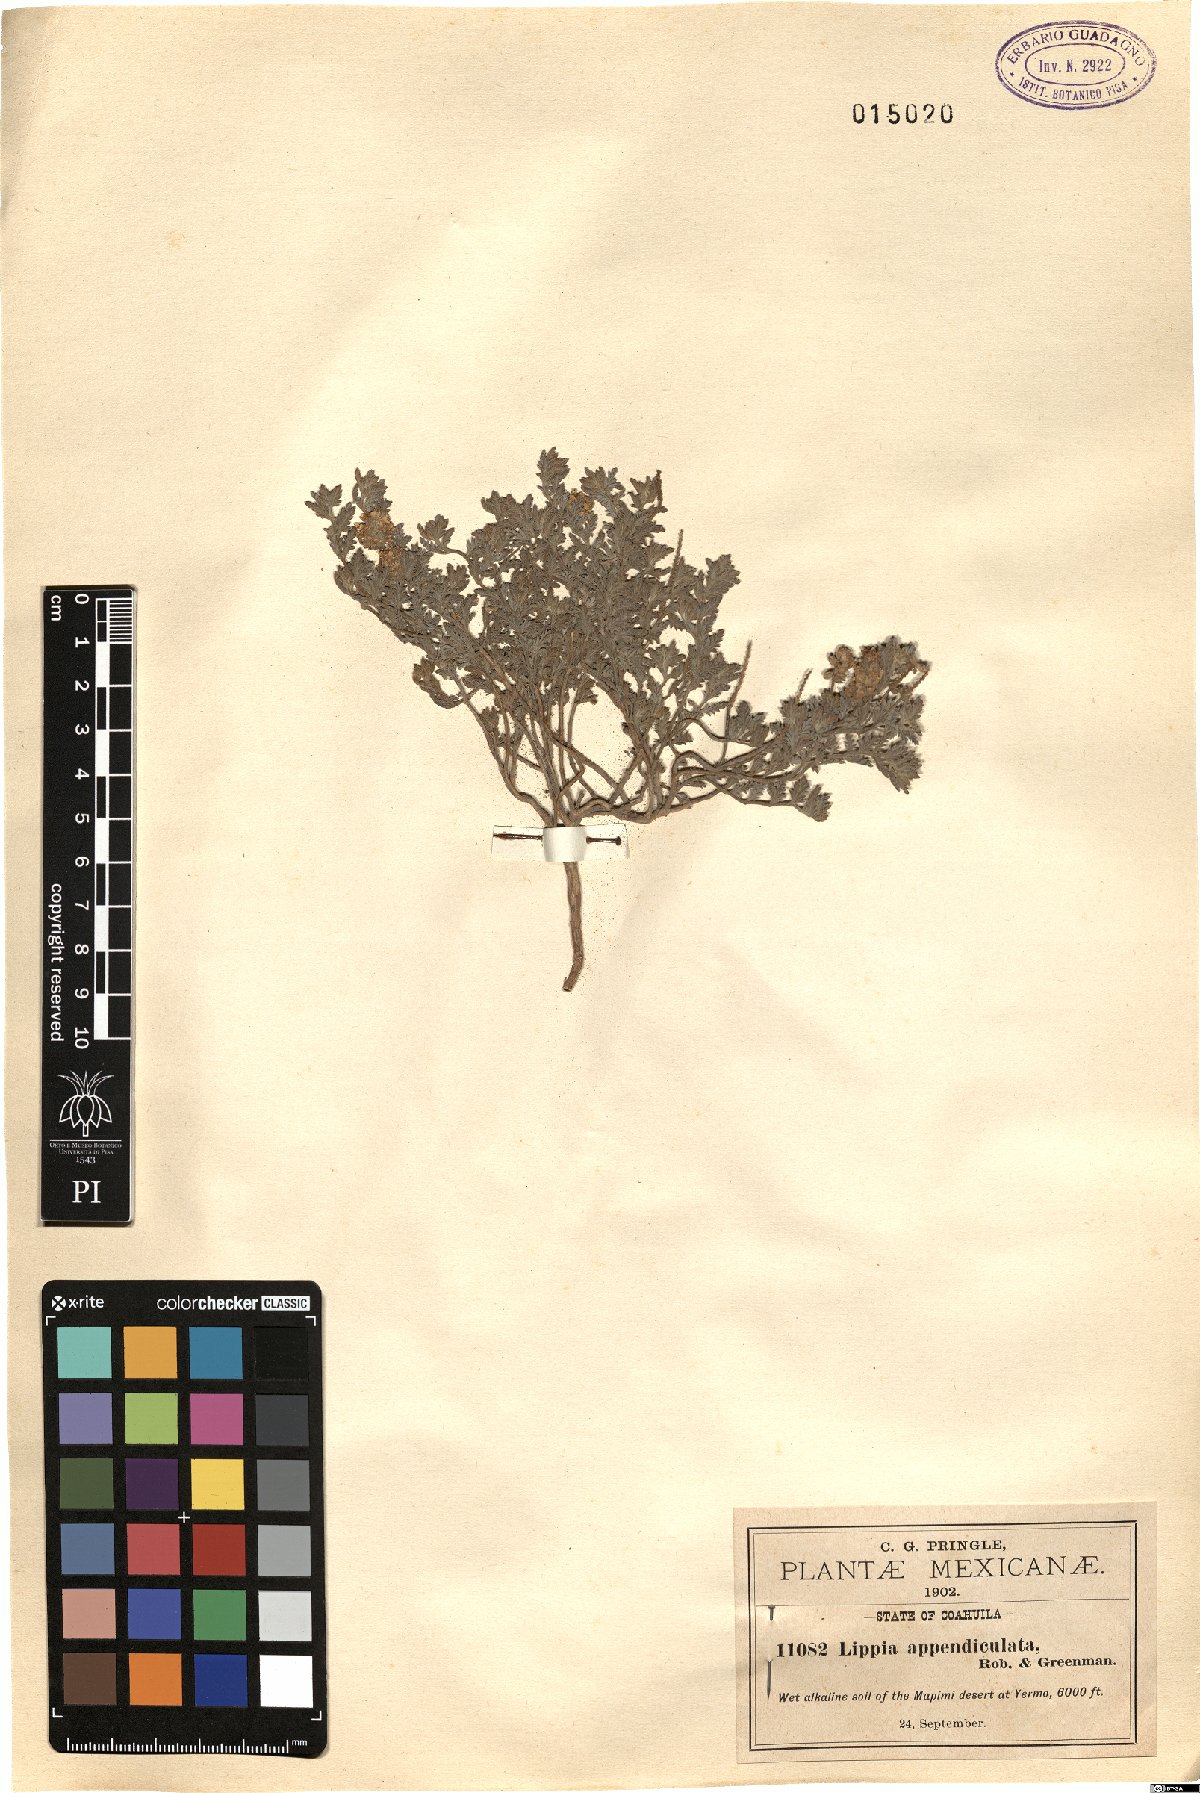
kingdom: Plantae
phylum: Tracheophyta
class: Magnoliopsida
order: Lamiales
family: Verbenaceae
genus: Lippia
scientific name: Lippia appendiculata
